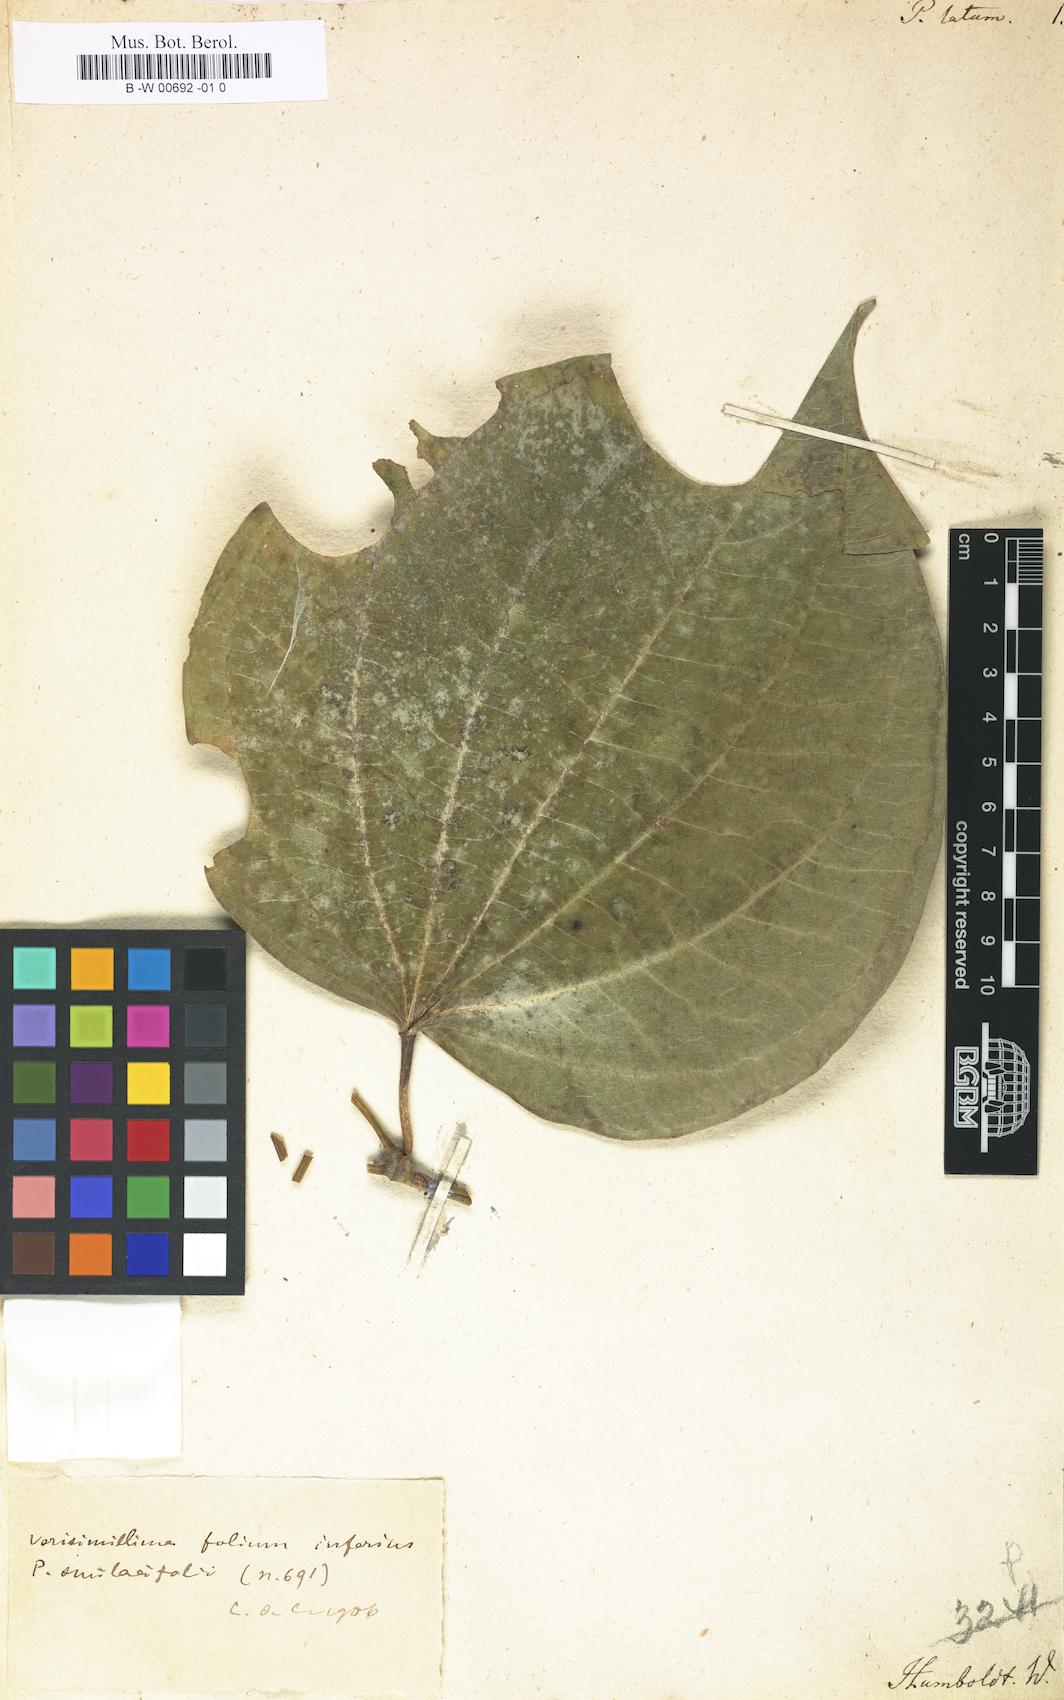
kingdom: Plantae
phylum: Tracheophyta
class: Magnoliopsida
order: Piperales
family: Piperaceae
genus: Piper
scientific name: Piper reticulatum
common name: Wild cane
